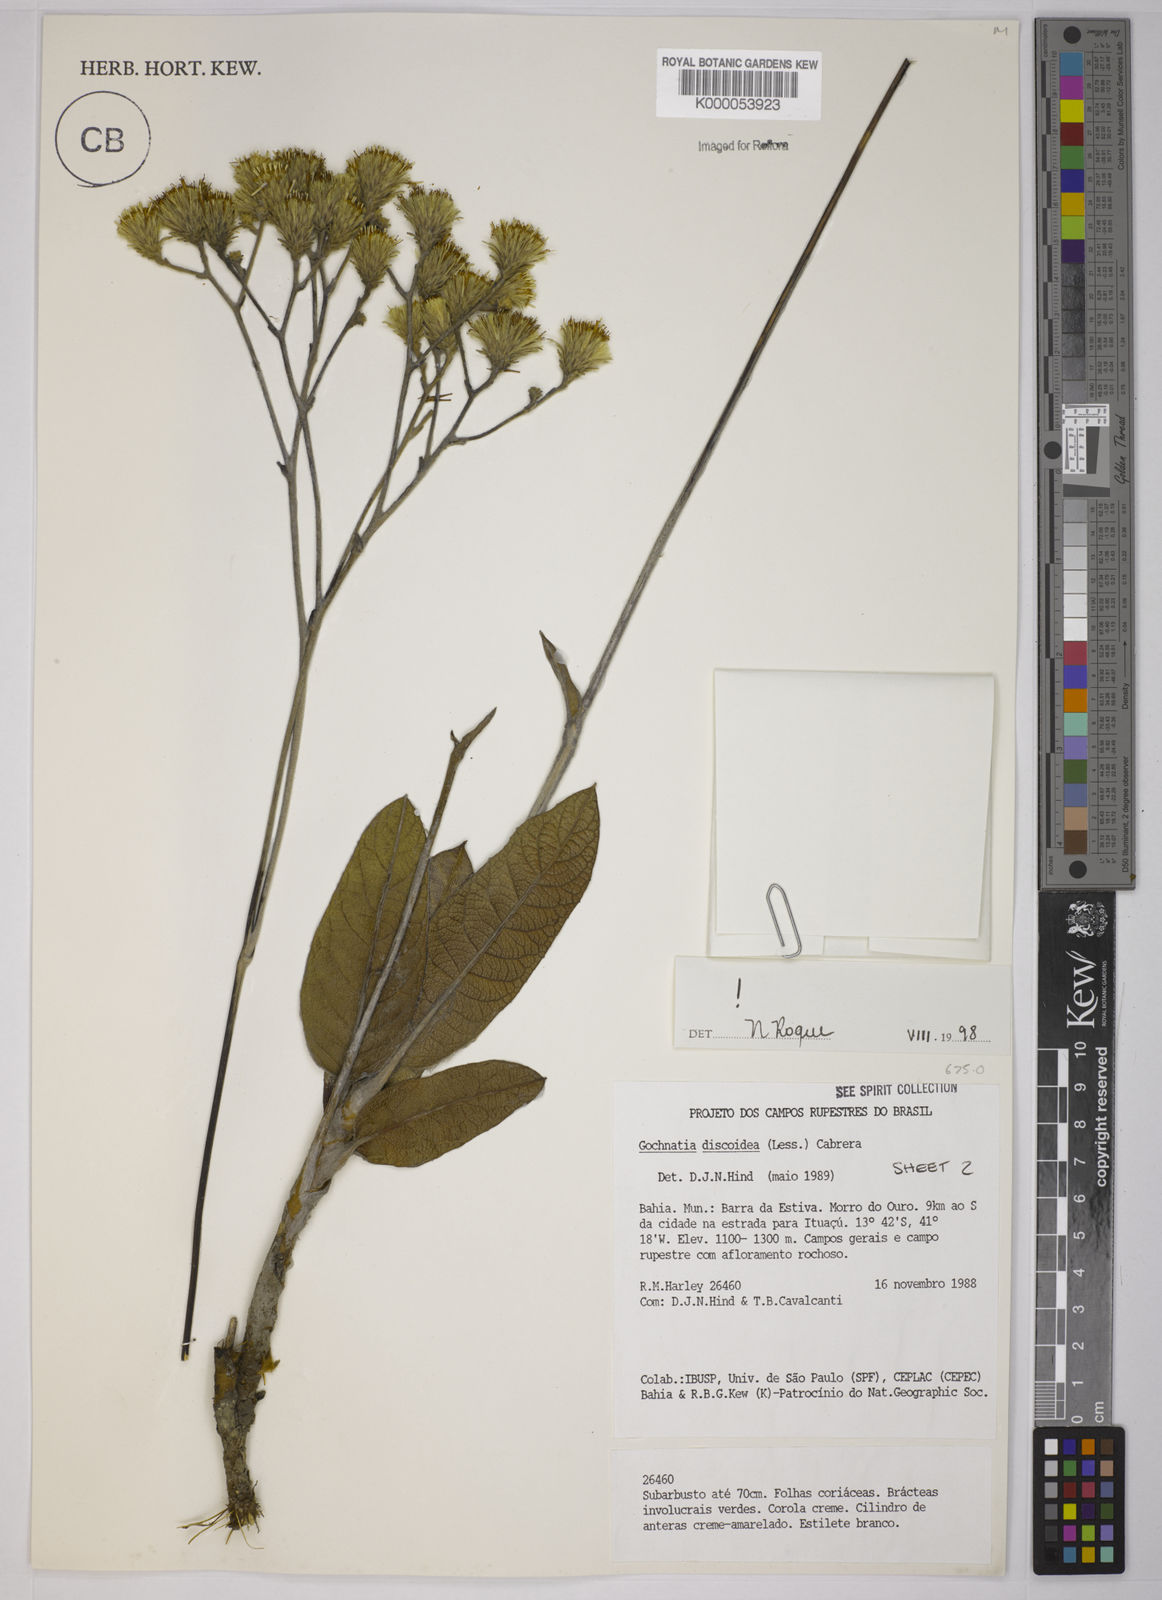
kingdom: Plantae
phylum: Tracheophyta
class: Magnoliopsida
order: Asterales
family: Asteraceae
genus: Richterago
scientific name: Richterago discoidea
